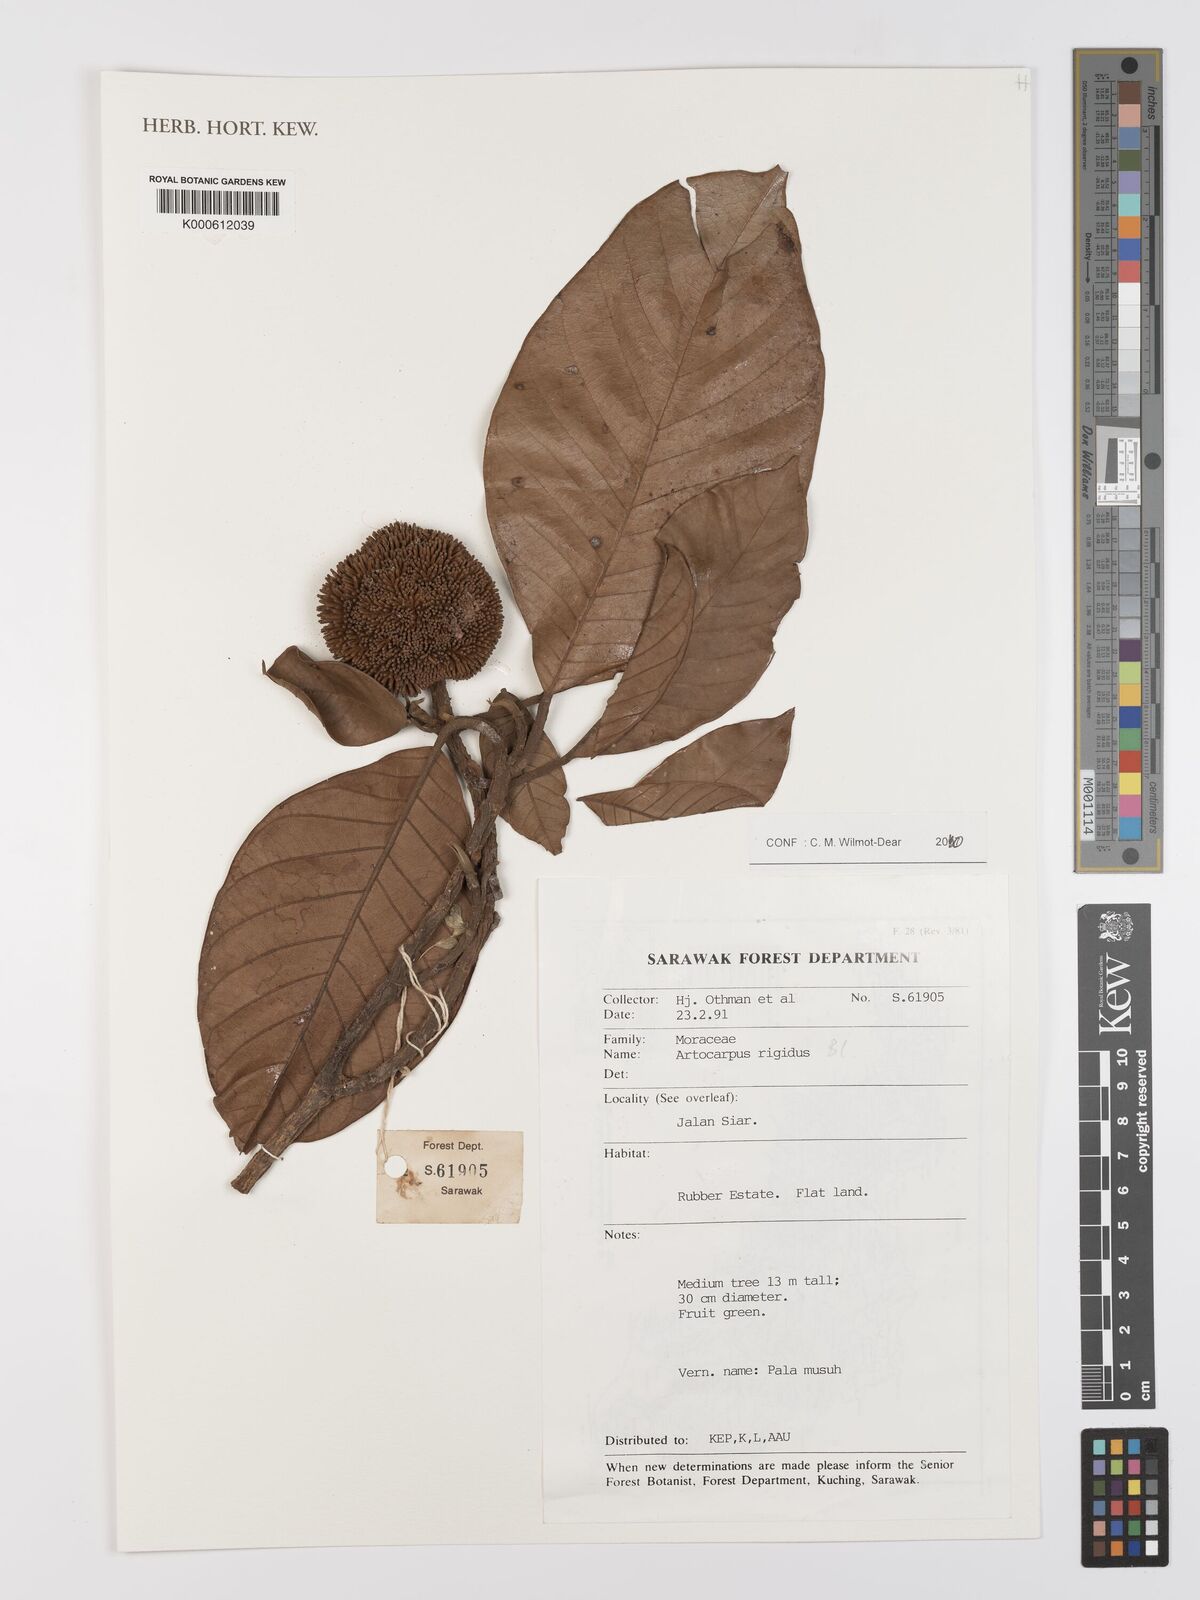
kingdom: Plantae
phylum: Tracheophyta
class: Magnoliopsida
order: Rosales
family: Moraceae
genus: Artocarpus
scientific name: Artocarpus rigidus
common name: Monkey-jack
